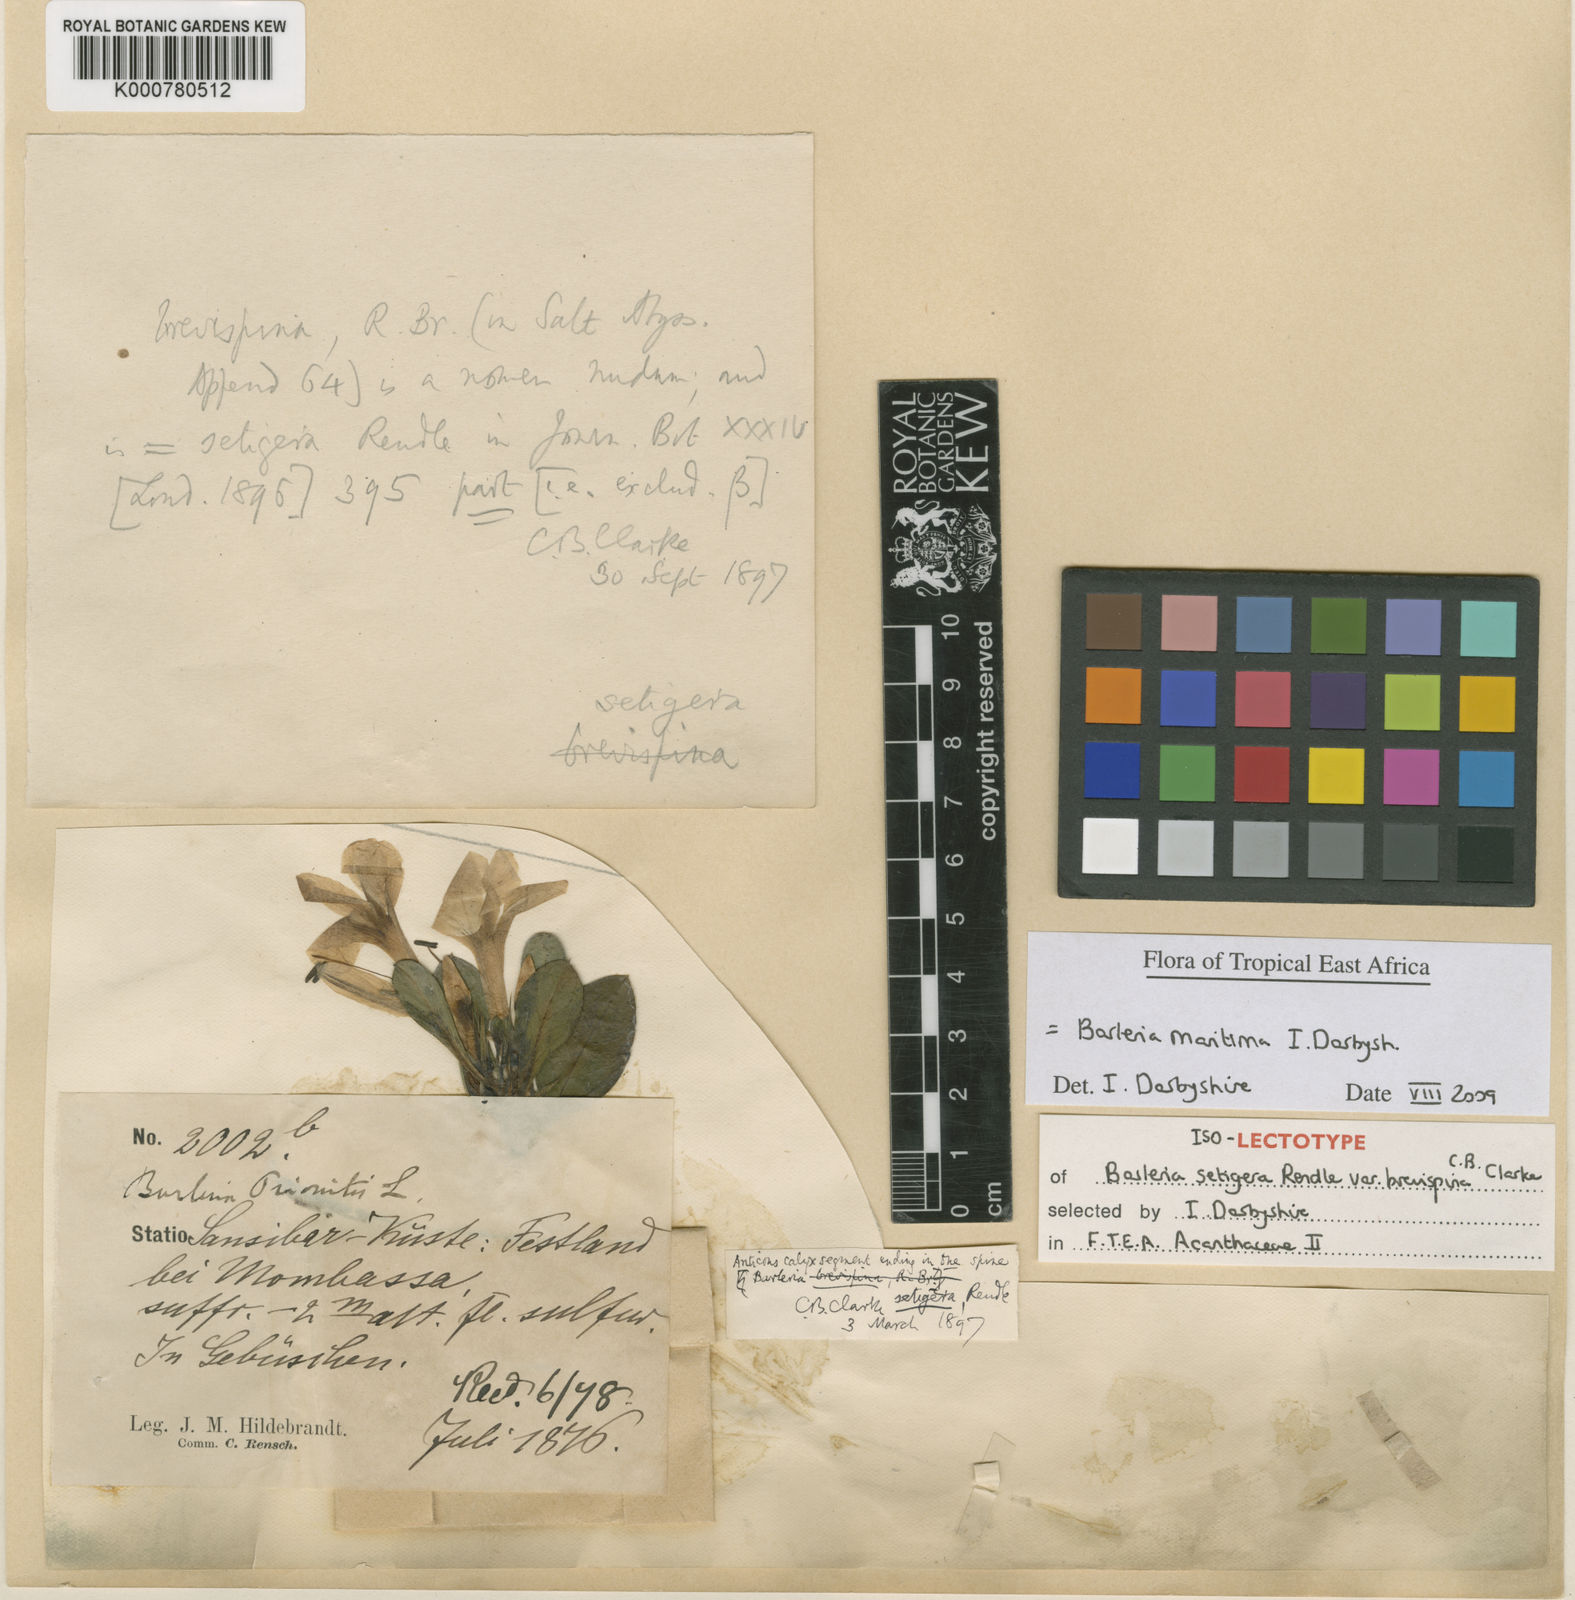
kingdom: Plantae
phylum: Tracheophyta
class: Magnoliopsida
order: Lamiales
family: Acanthaceae
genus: Barleria
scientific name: Barleria maritima
